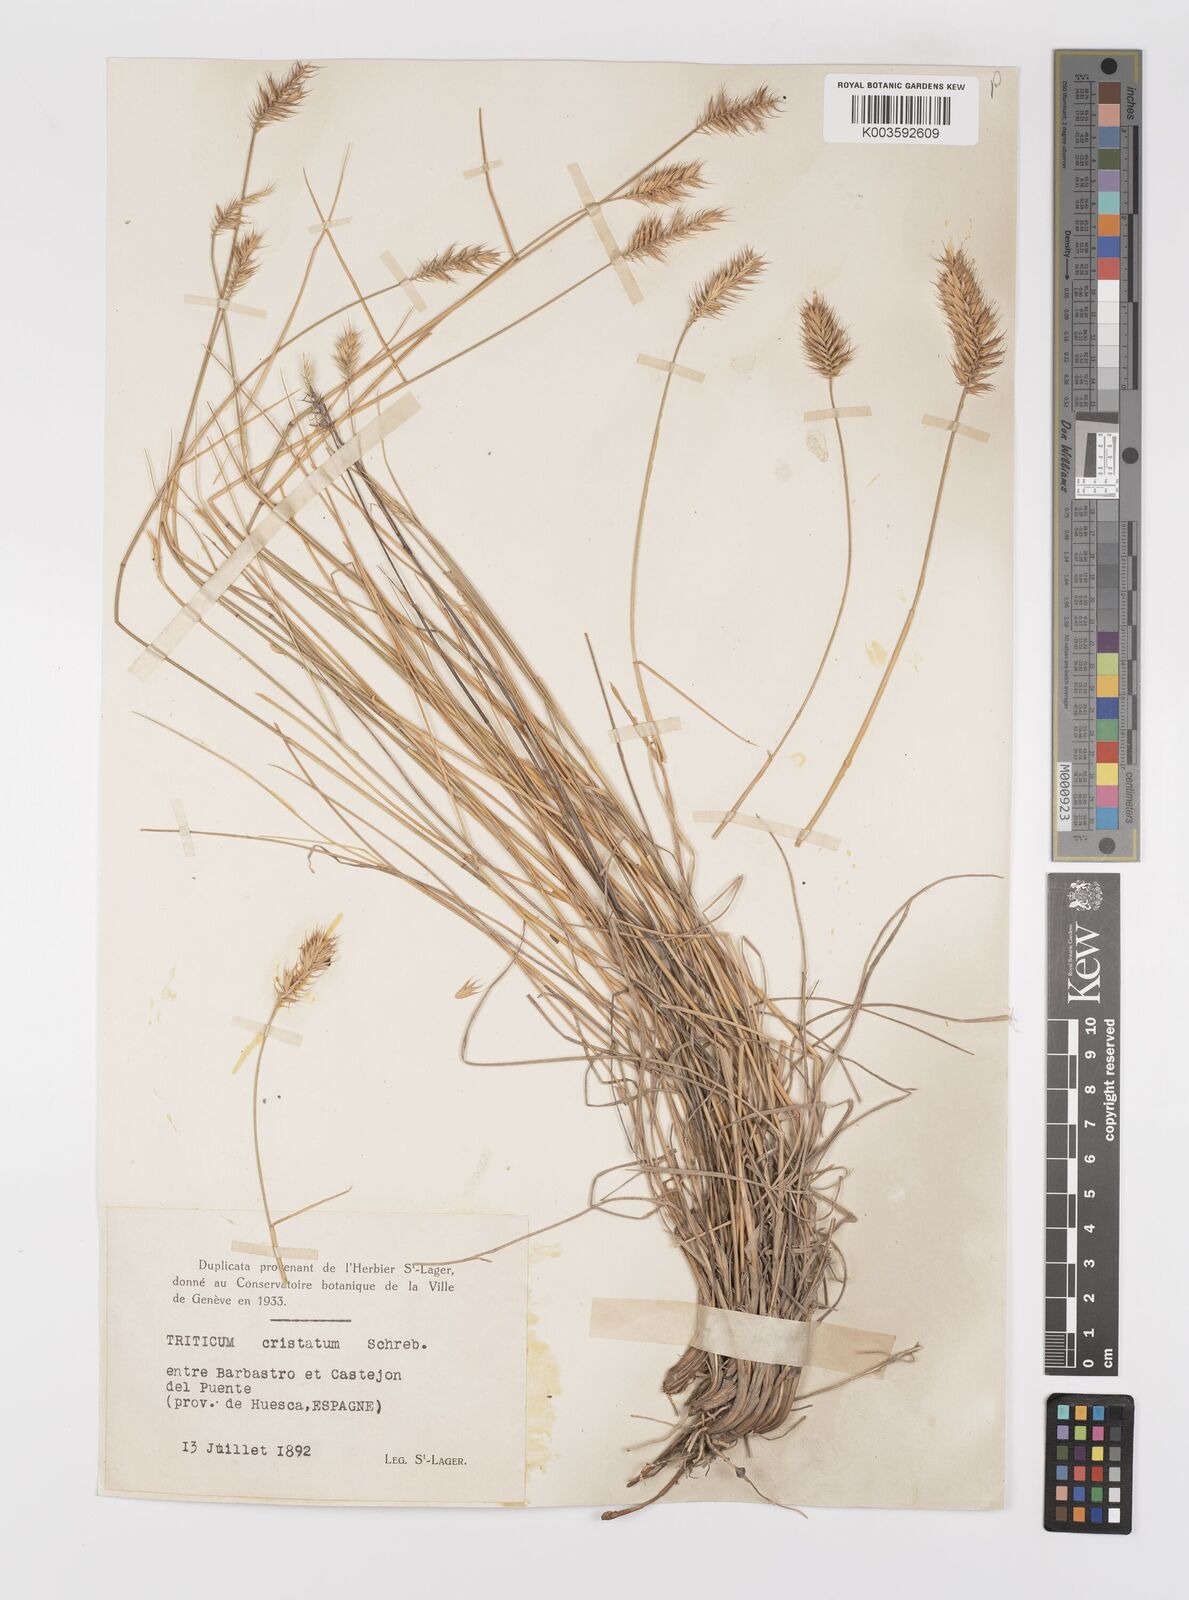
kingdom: Plantae
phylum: Tracheophyta
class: Liliopsida
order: Poales
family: Poaceae
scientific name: Poaceae
